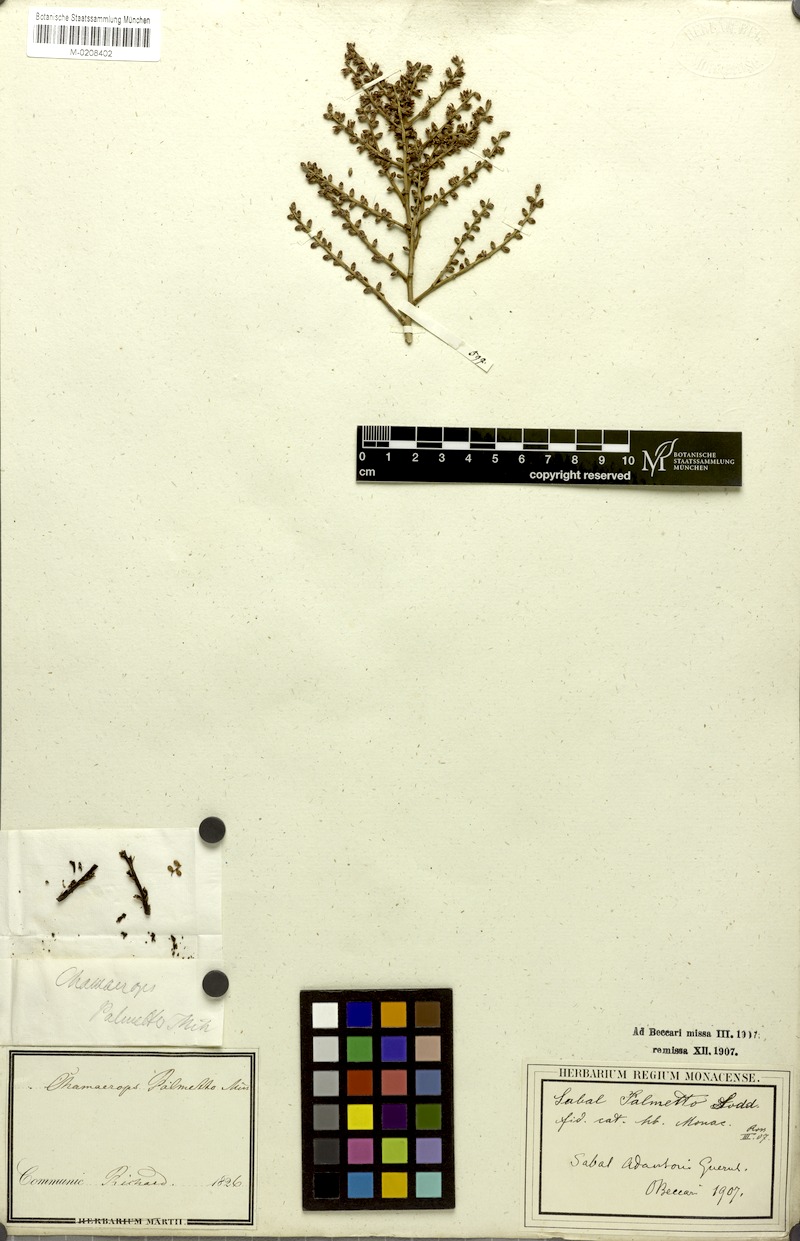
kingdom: Plantae
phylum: Tracheophyta
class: Liliopsida
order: Arecales
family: Arecaceae
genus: Sabal
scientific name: Sabal palmetto
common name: Blue palmetto
